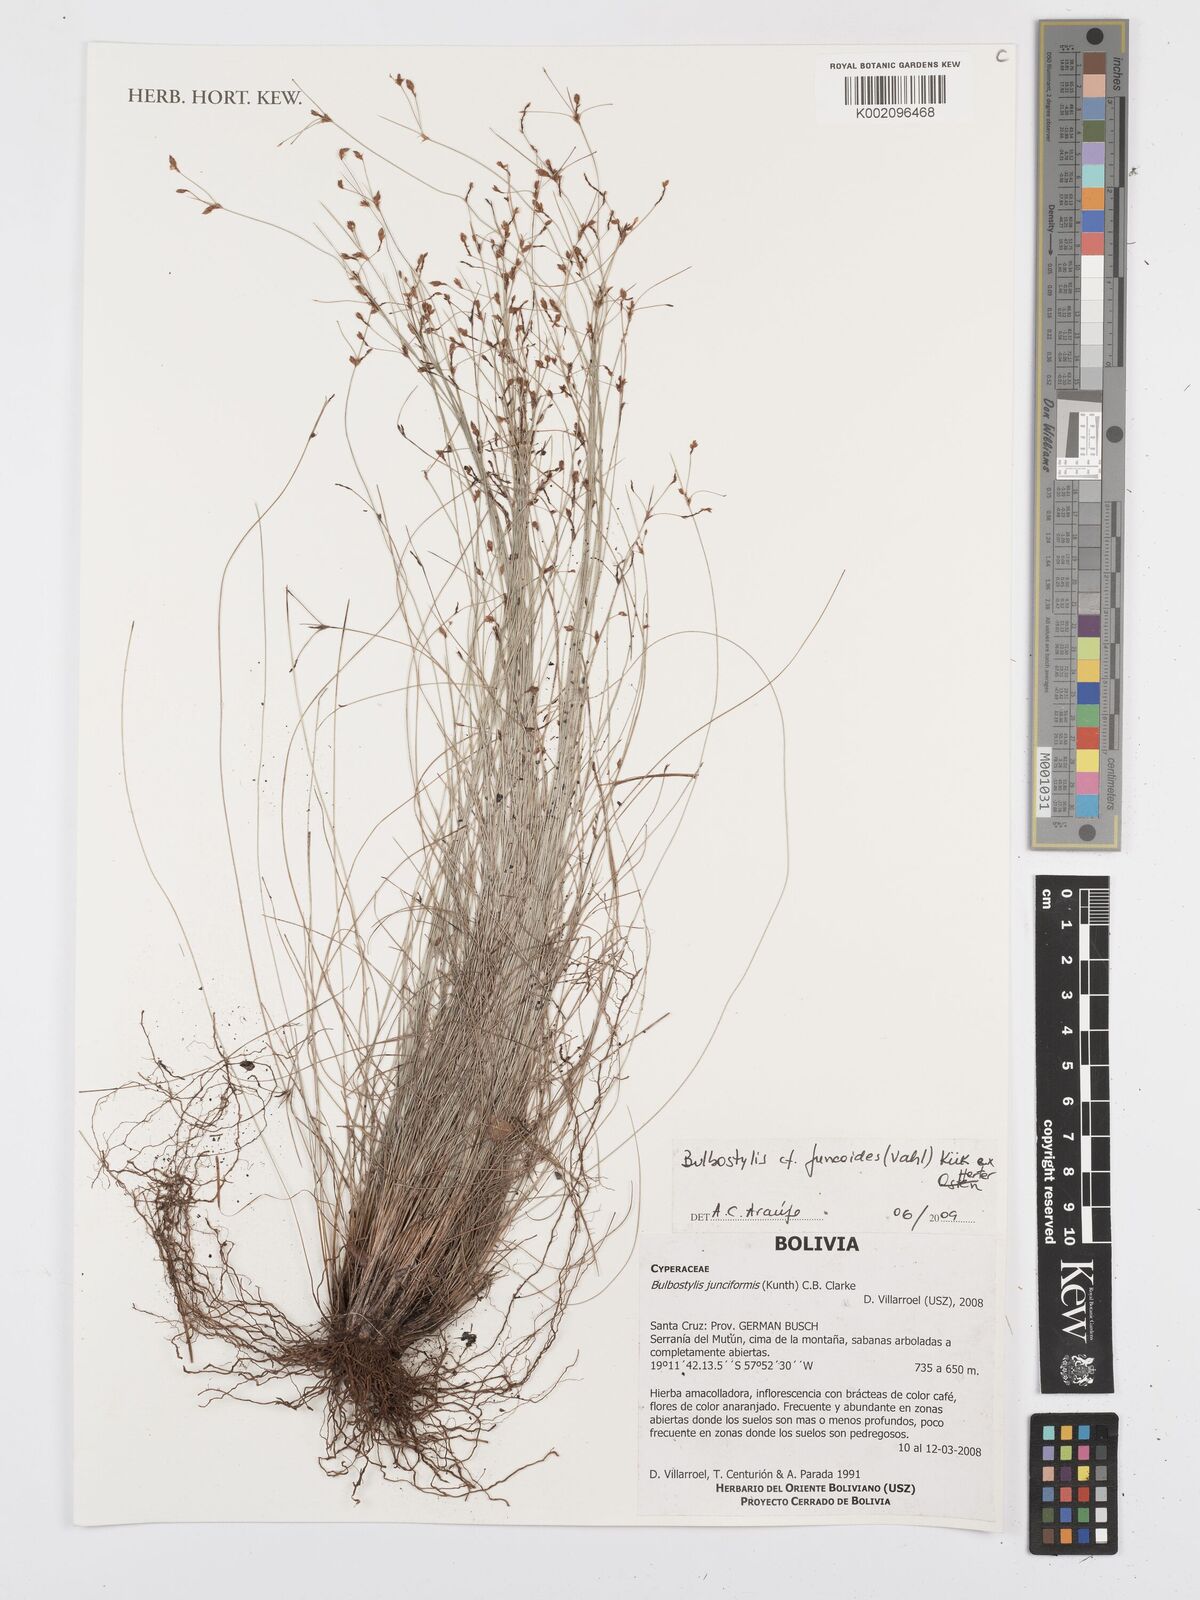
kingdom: Plantae
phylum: Tracheophyta
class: Liliopsida
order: Poales
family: Cyperaceae
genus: Bulbostylis
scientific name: Bulbostylis juncoides
